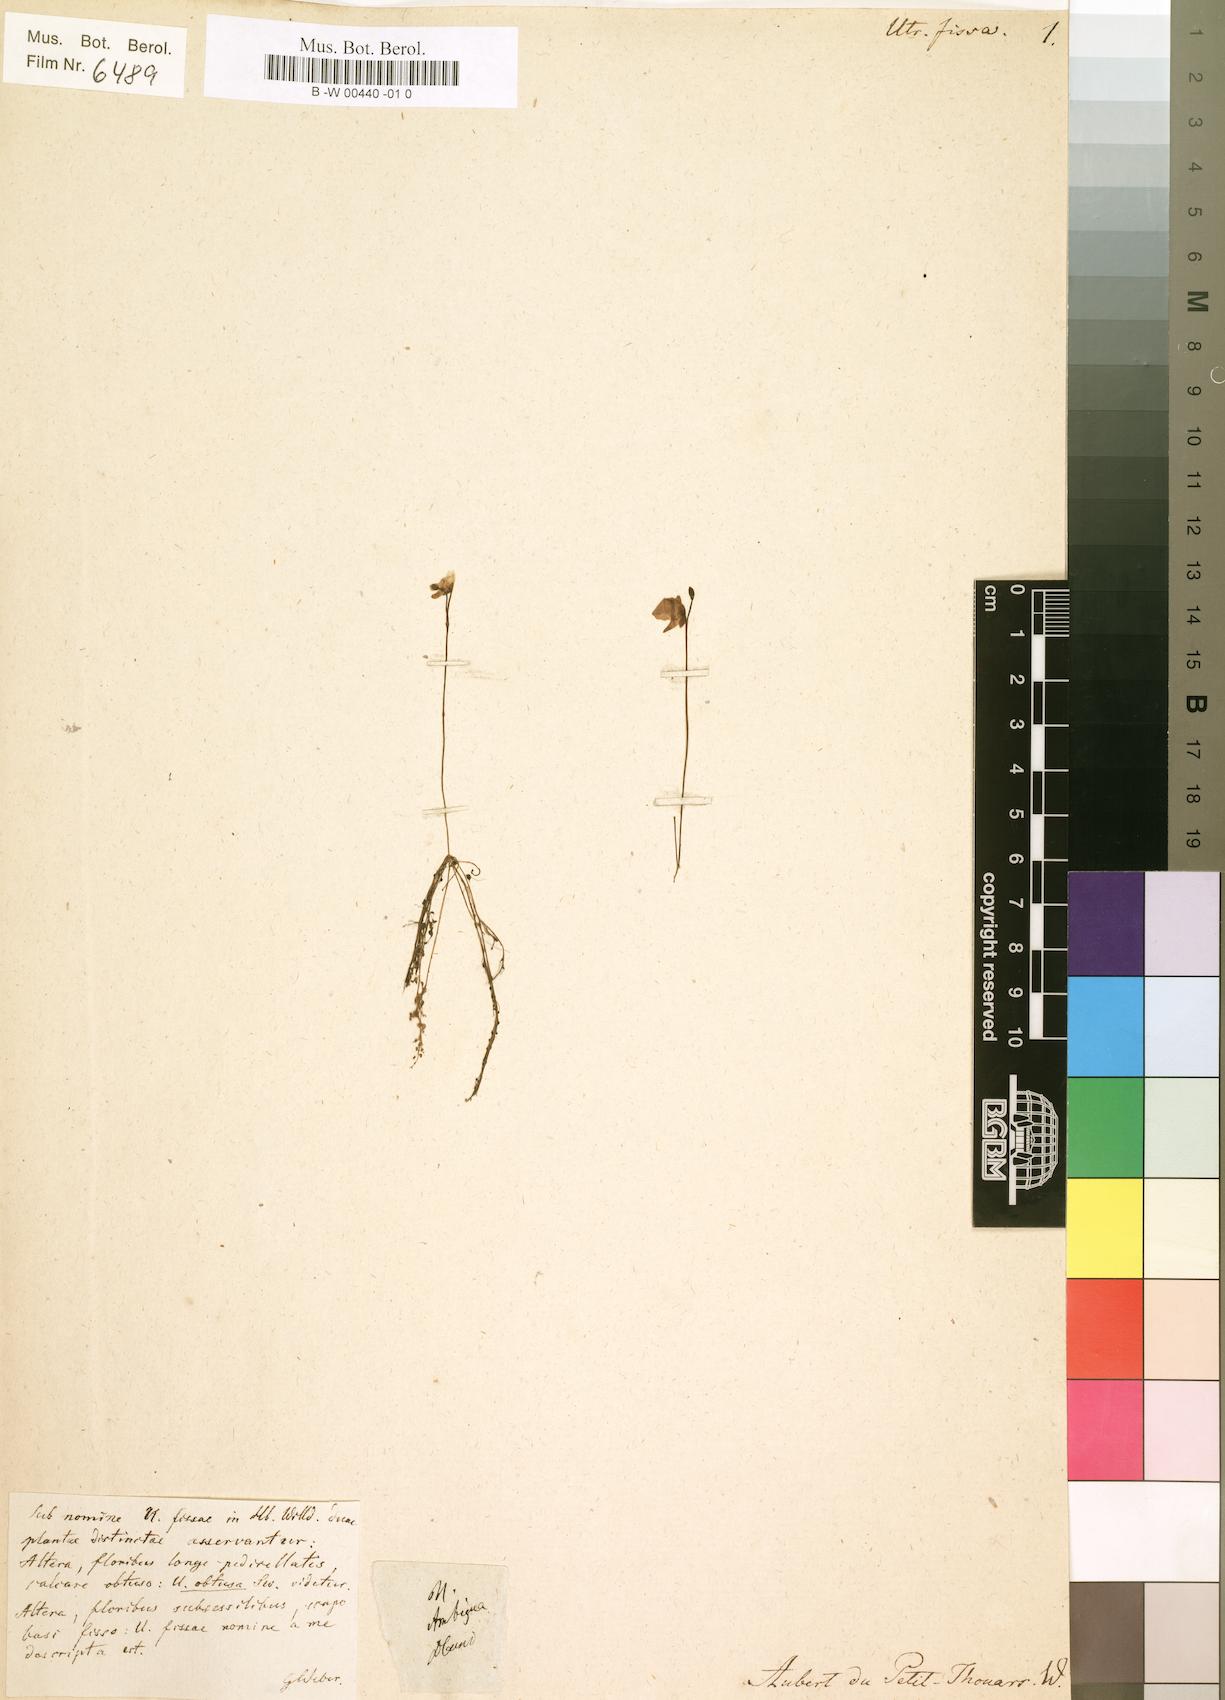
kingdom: Plantae
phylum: Tracheophyta
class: Magnoliopsida
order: Lamiales
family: Lentibulariaceae
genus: Utricularia
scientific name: Utricularia gibba
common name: Humped bladderwort
